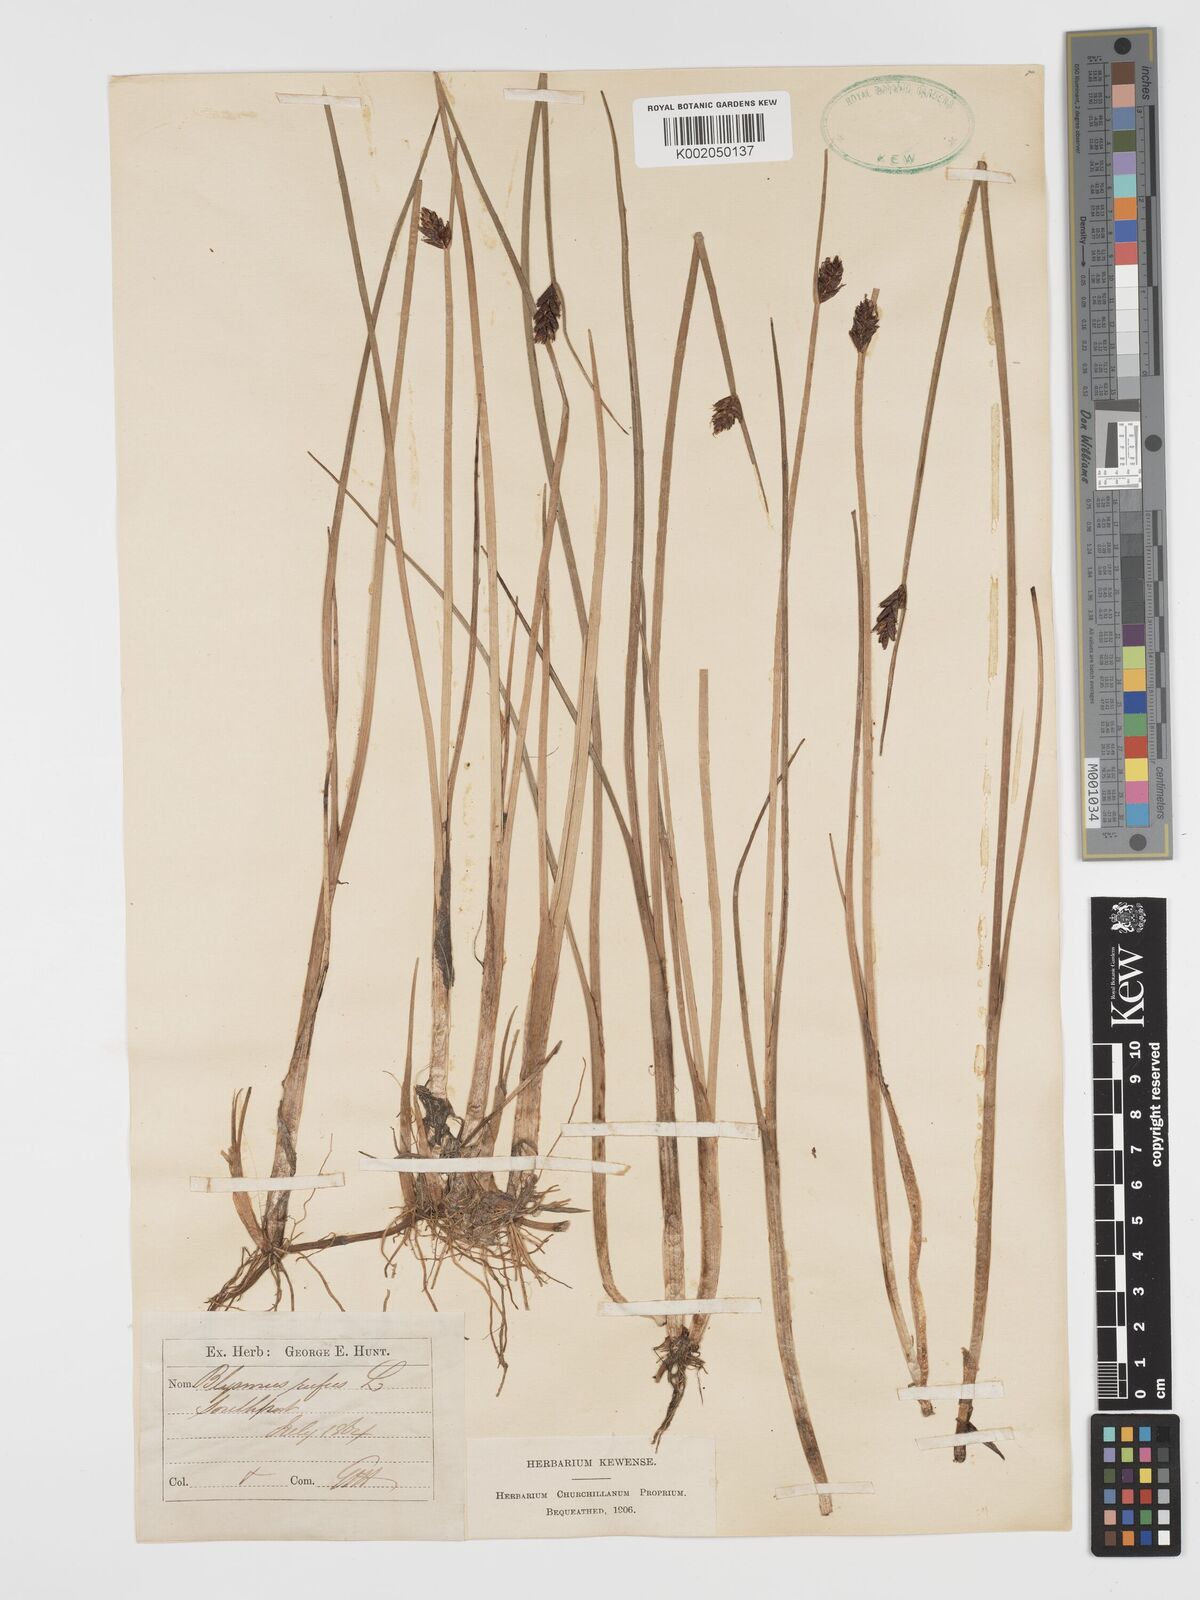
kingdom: Plantae
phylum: Tracheophyta
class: Liliopsida
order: Poales
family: Cyperaceae
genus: Blysmus
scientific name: Blysmus rufus
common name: Saltmarsh flat-sedge
